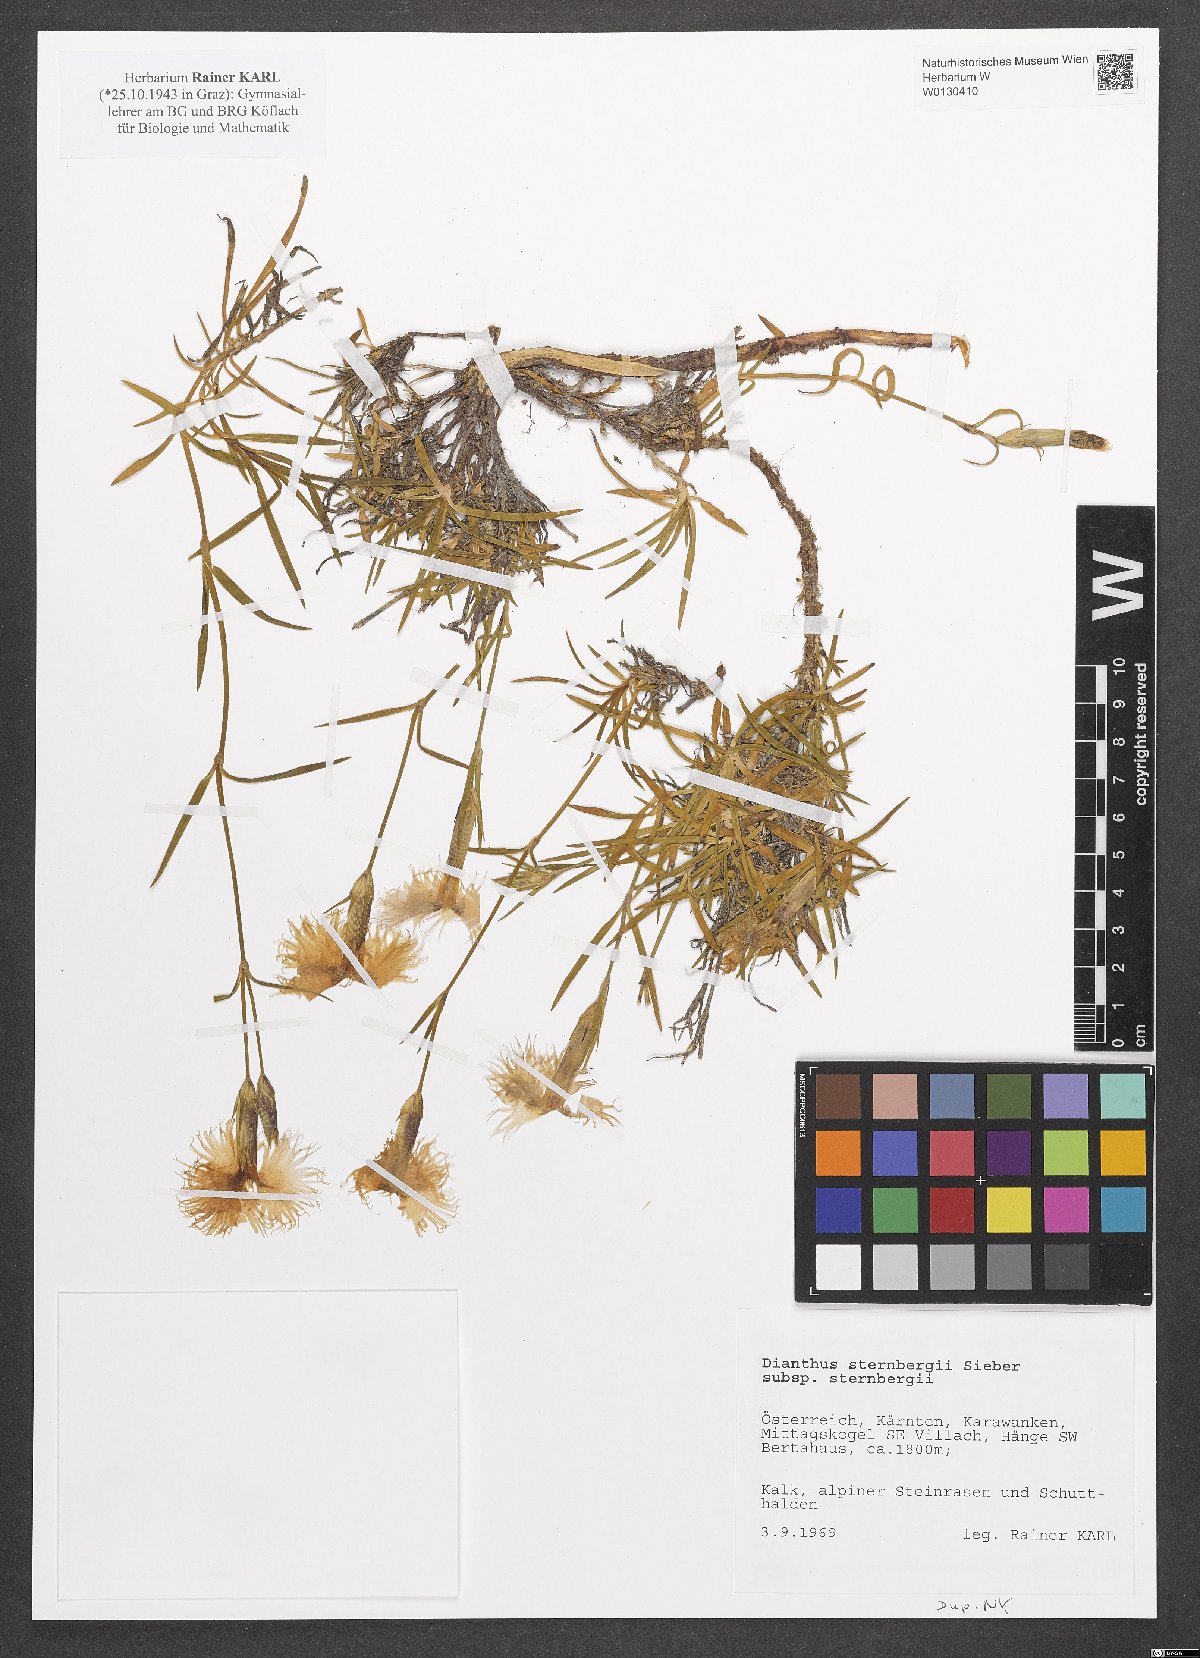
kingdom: Plantae
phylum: Tracheophyta
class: Magnoliopsida
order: Caryophyllales
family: Caryophyllaceae
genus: Dianthus
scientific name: Dianthus sternbergii
